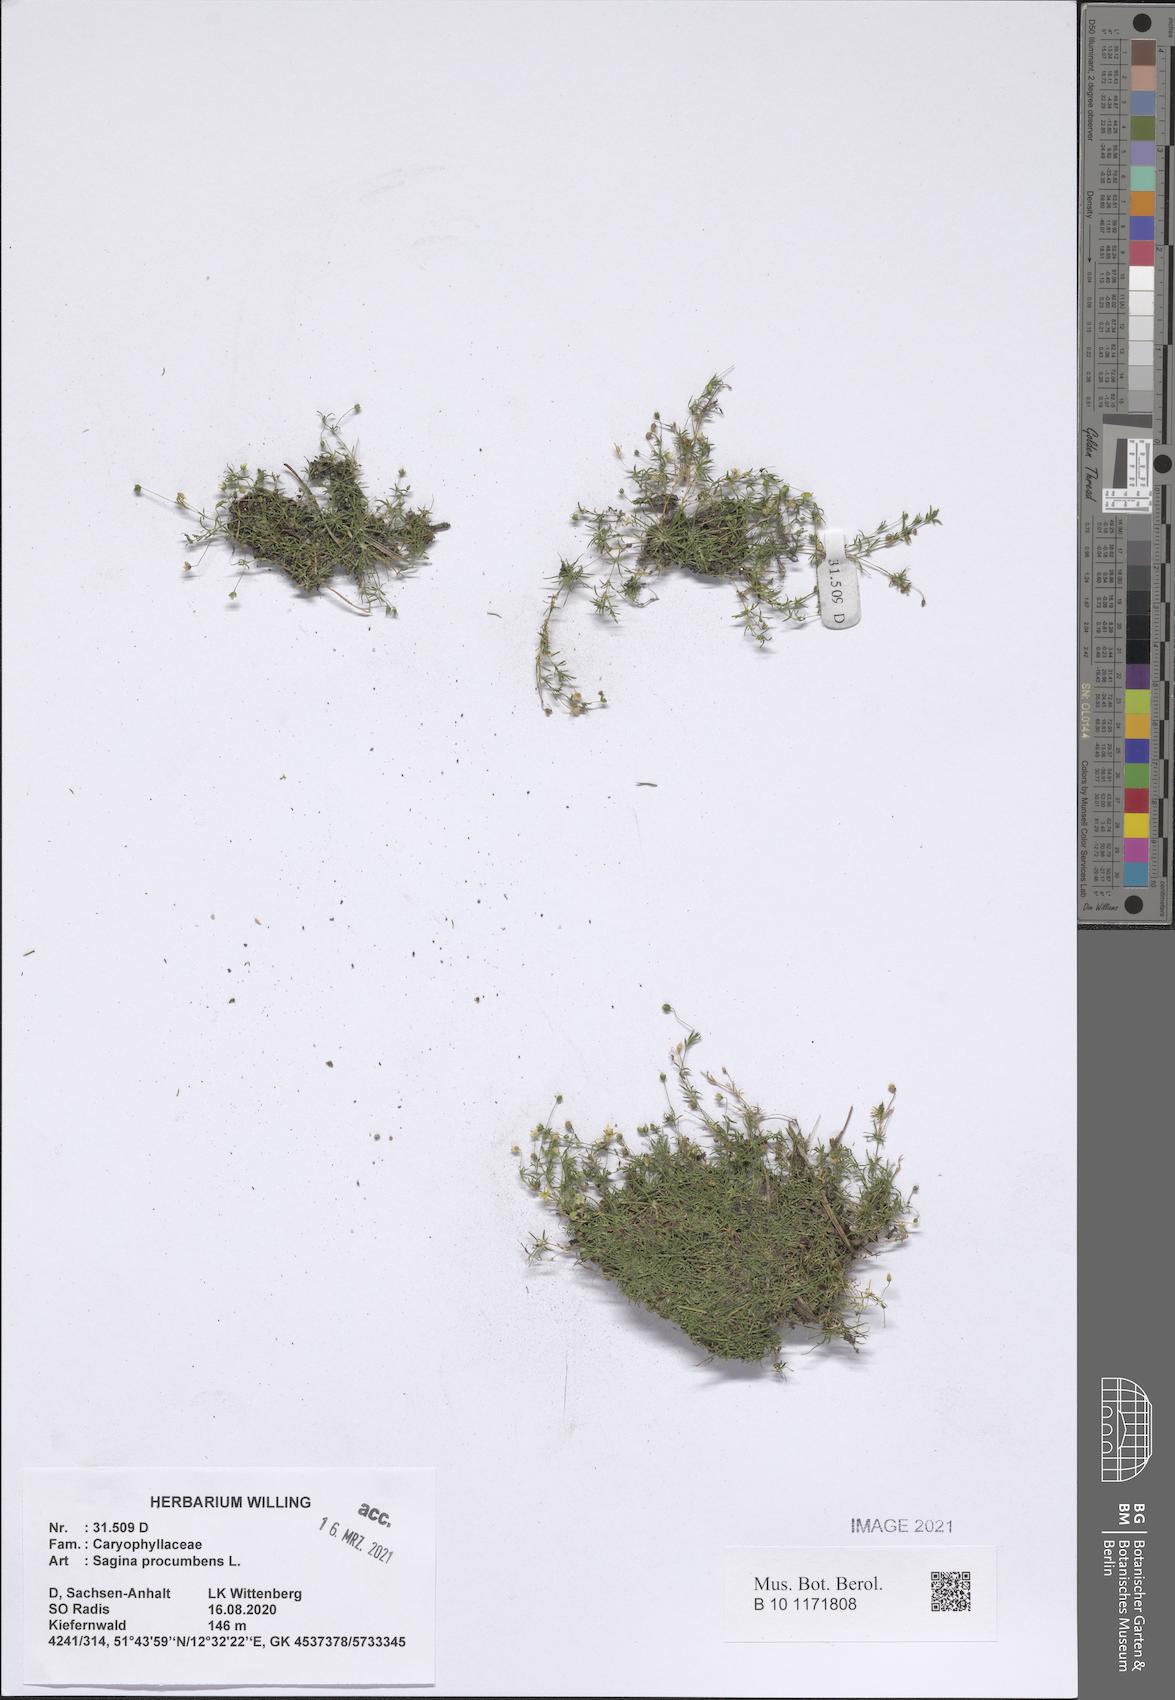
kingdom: Plantae
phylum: Tracheophyta
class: Magnoliopsida
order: Caryophyllales
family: Caryophyllaceae
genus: Sagina
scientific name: Sagina procumbens
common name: Procumbent pearlwort
